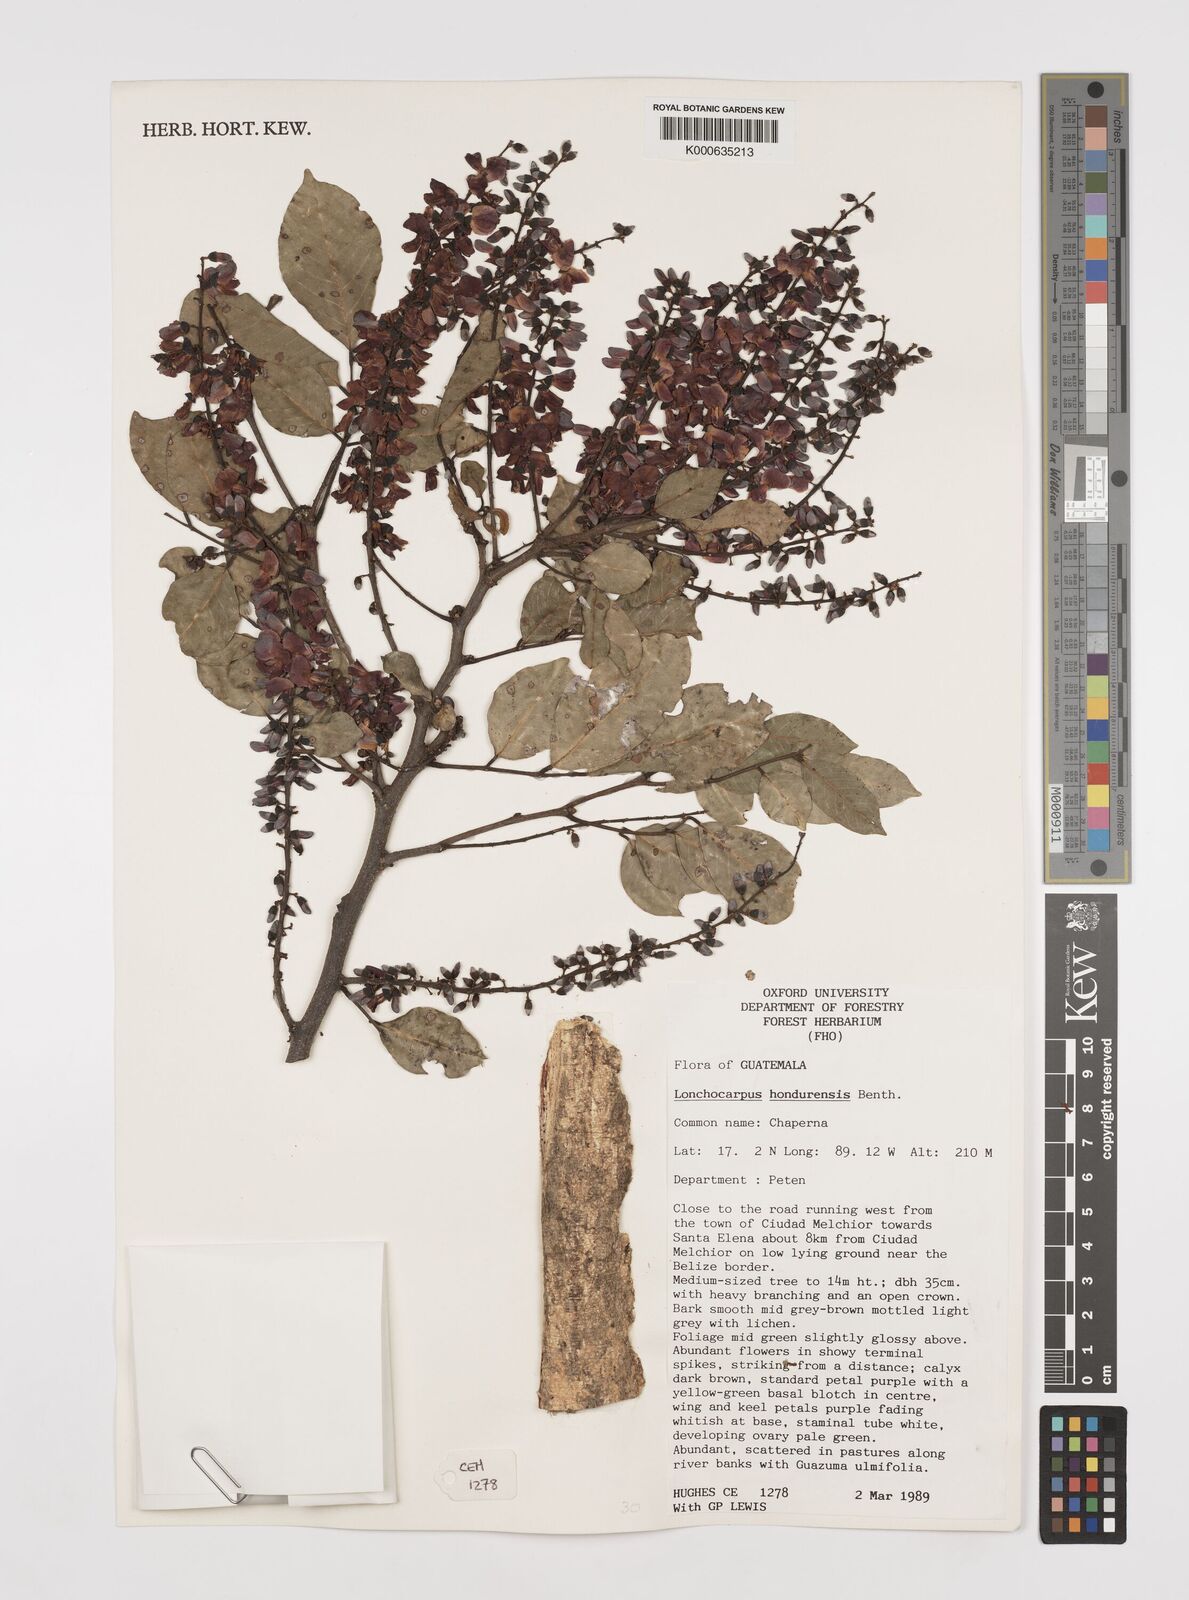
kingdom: Plantae
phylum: Tracheophyta
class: Magnoliopsida
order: Fabales
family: Fabaceae
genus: Lonchocarpus
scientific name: Lonchocarpus hondurensis
